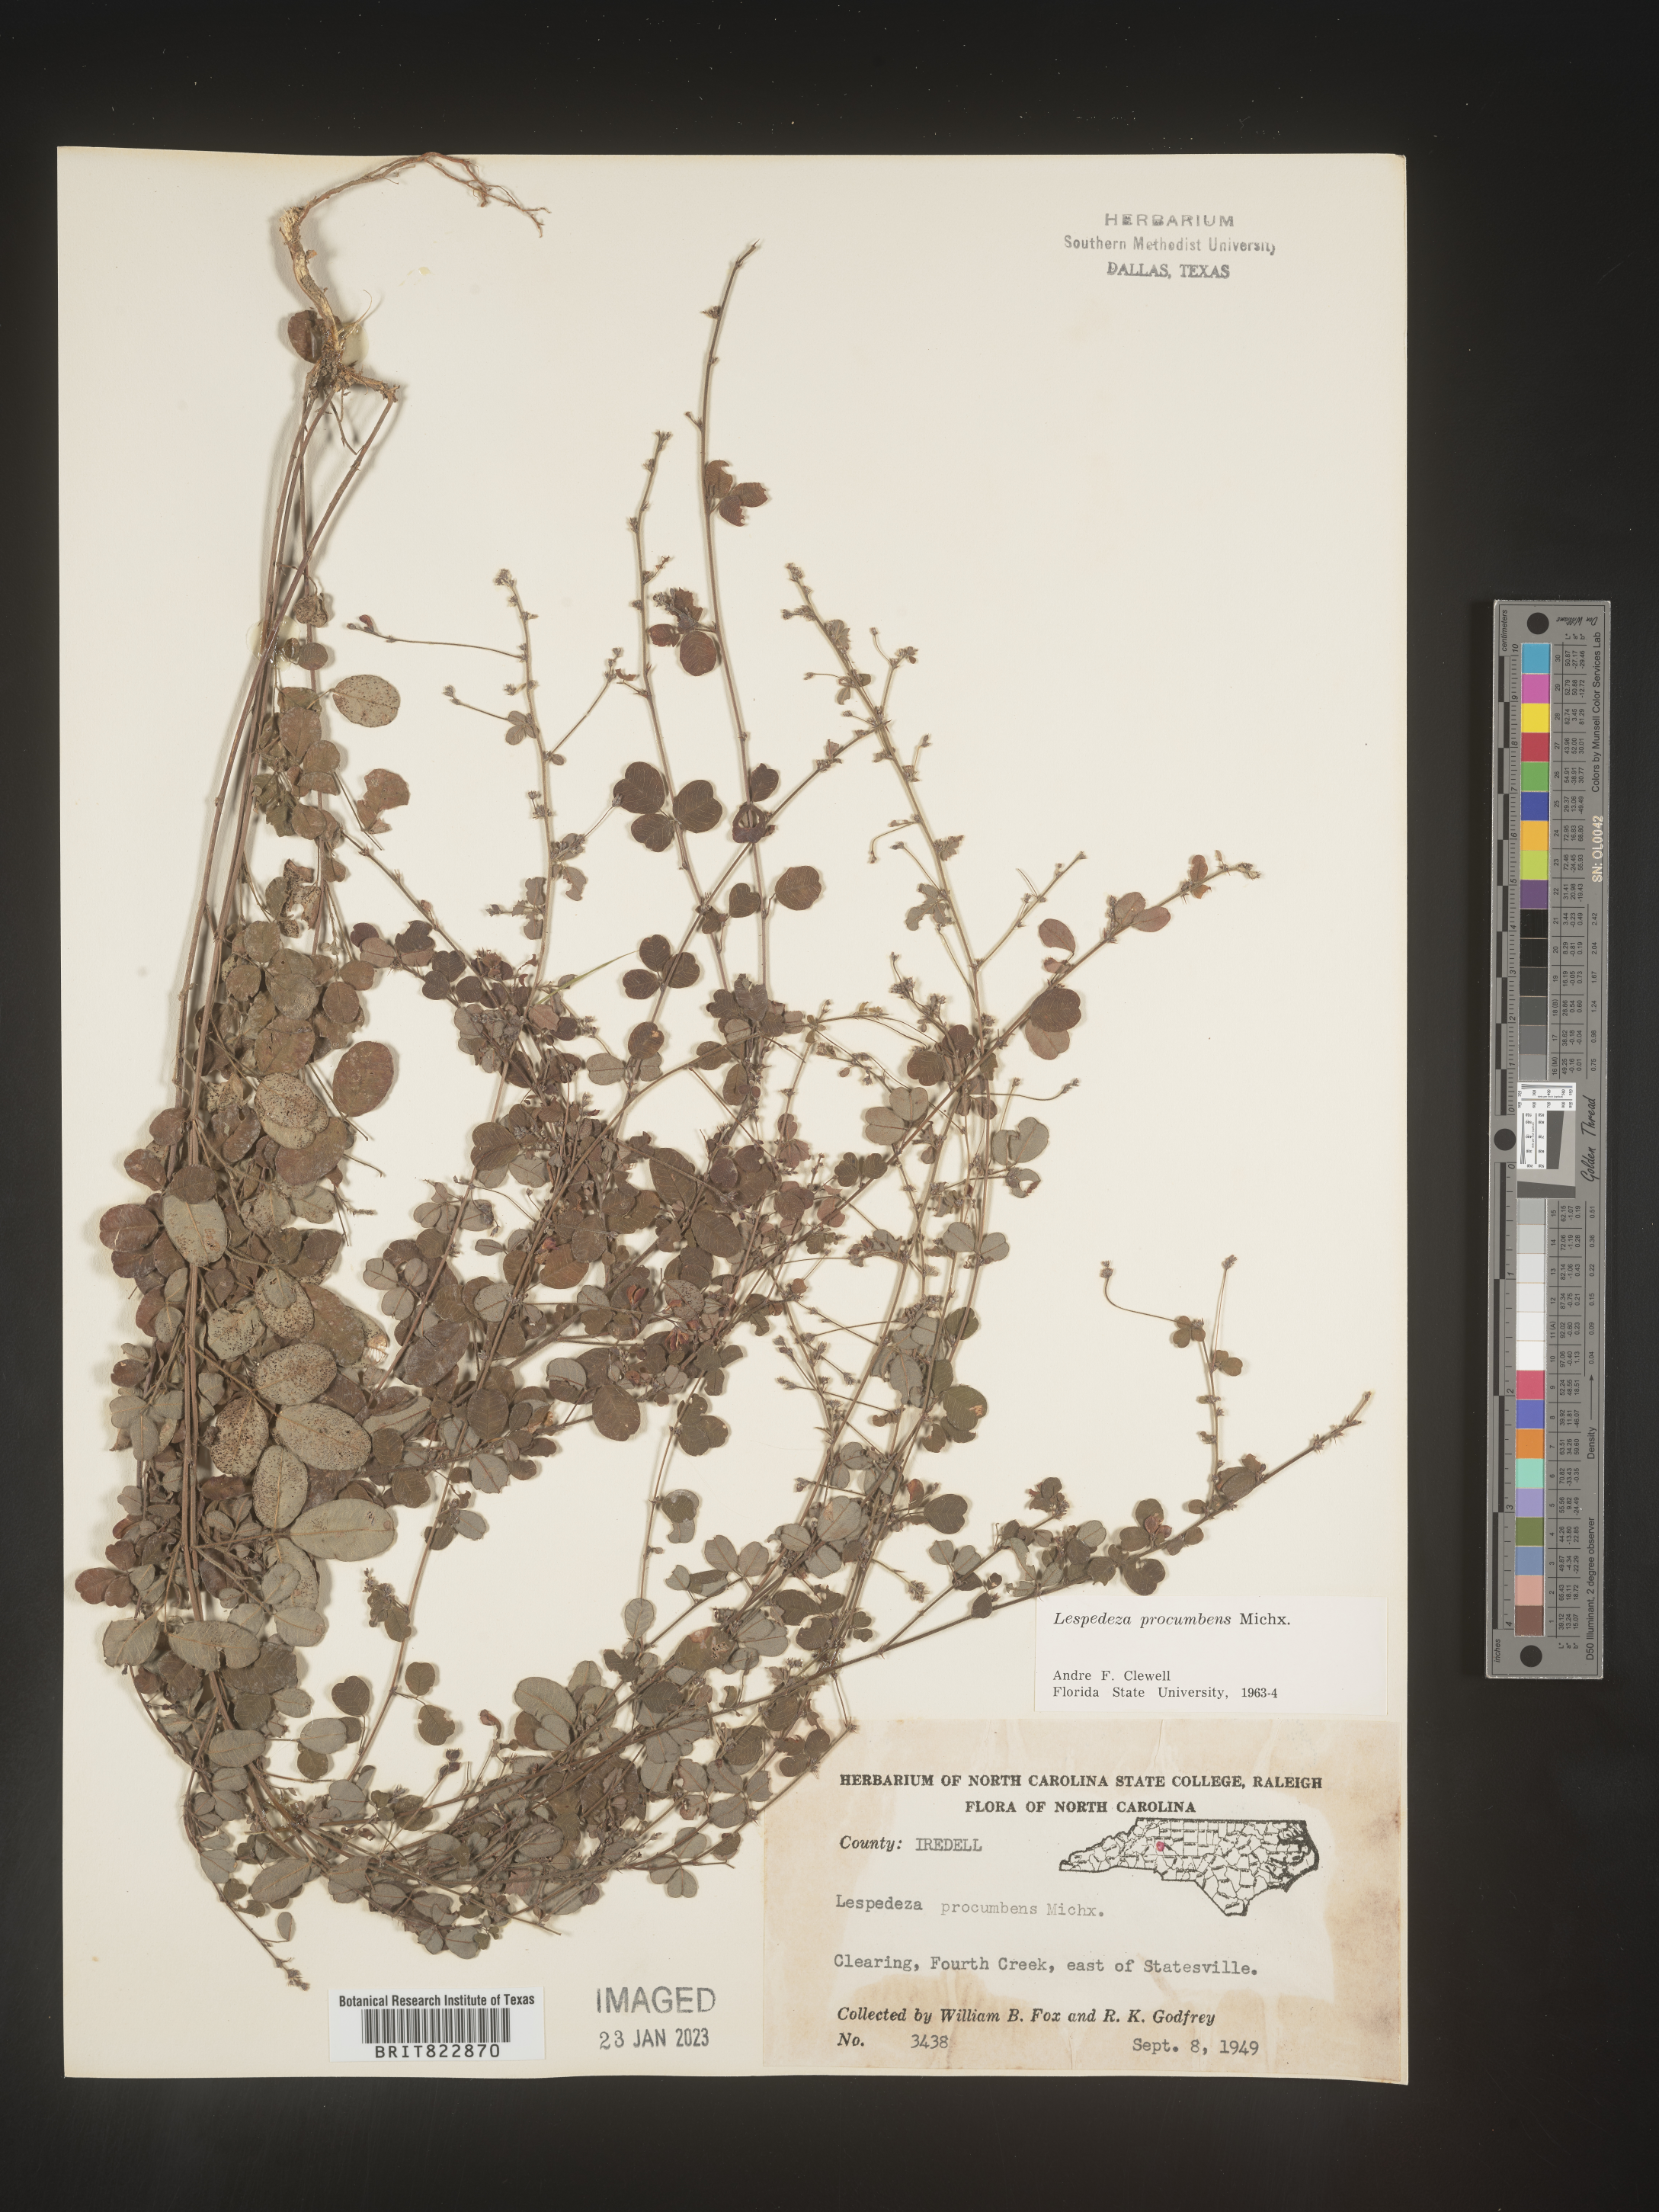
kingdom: Plantae
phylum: Tracheophyta
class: Magnoliopsida
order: Fabales
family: Fabaceae
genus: Lespedeza
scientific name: Lespedeza procumbens
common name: Downy trailing bush-clover
